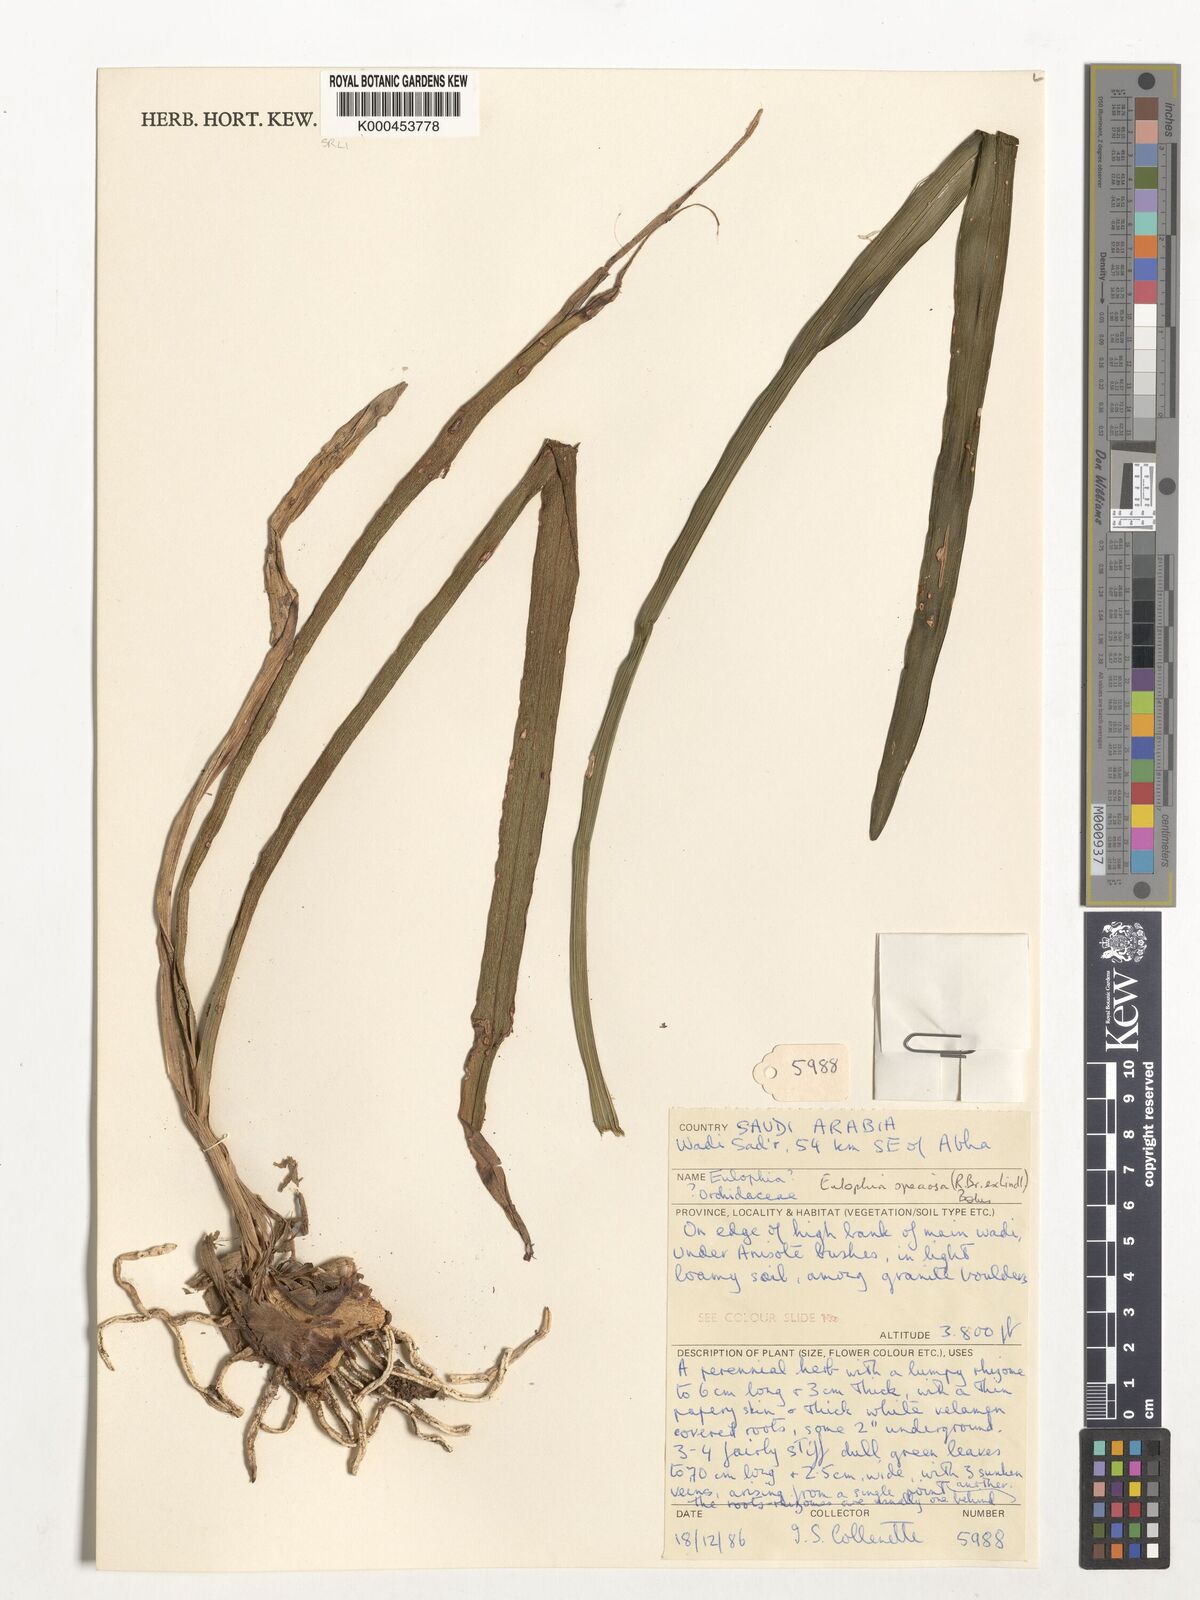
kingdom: Plantae
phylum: Tracheophyta
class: Liliopsida
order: Asparagales
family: Orchidaceae
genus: Eulophia
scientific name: Eulophia speciosa
